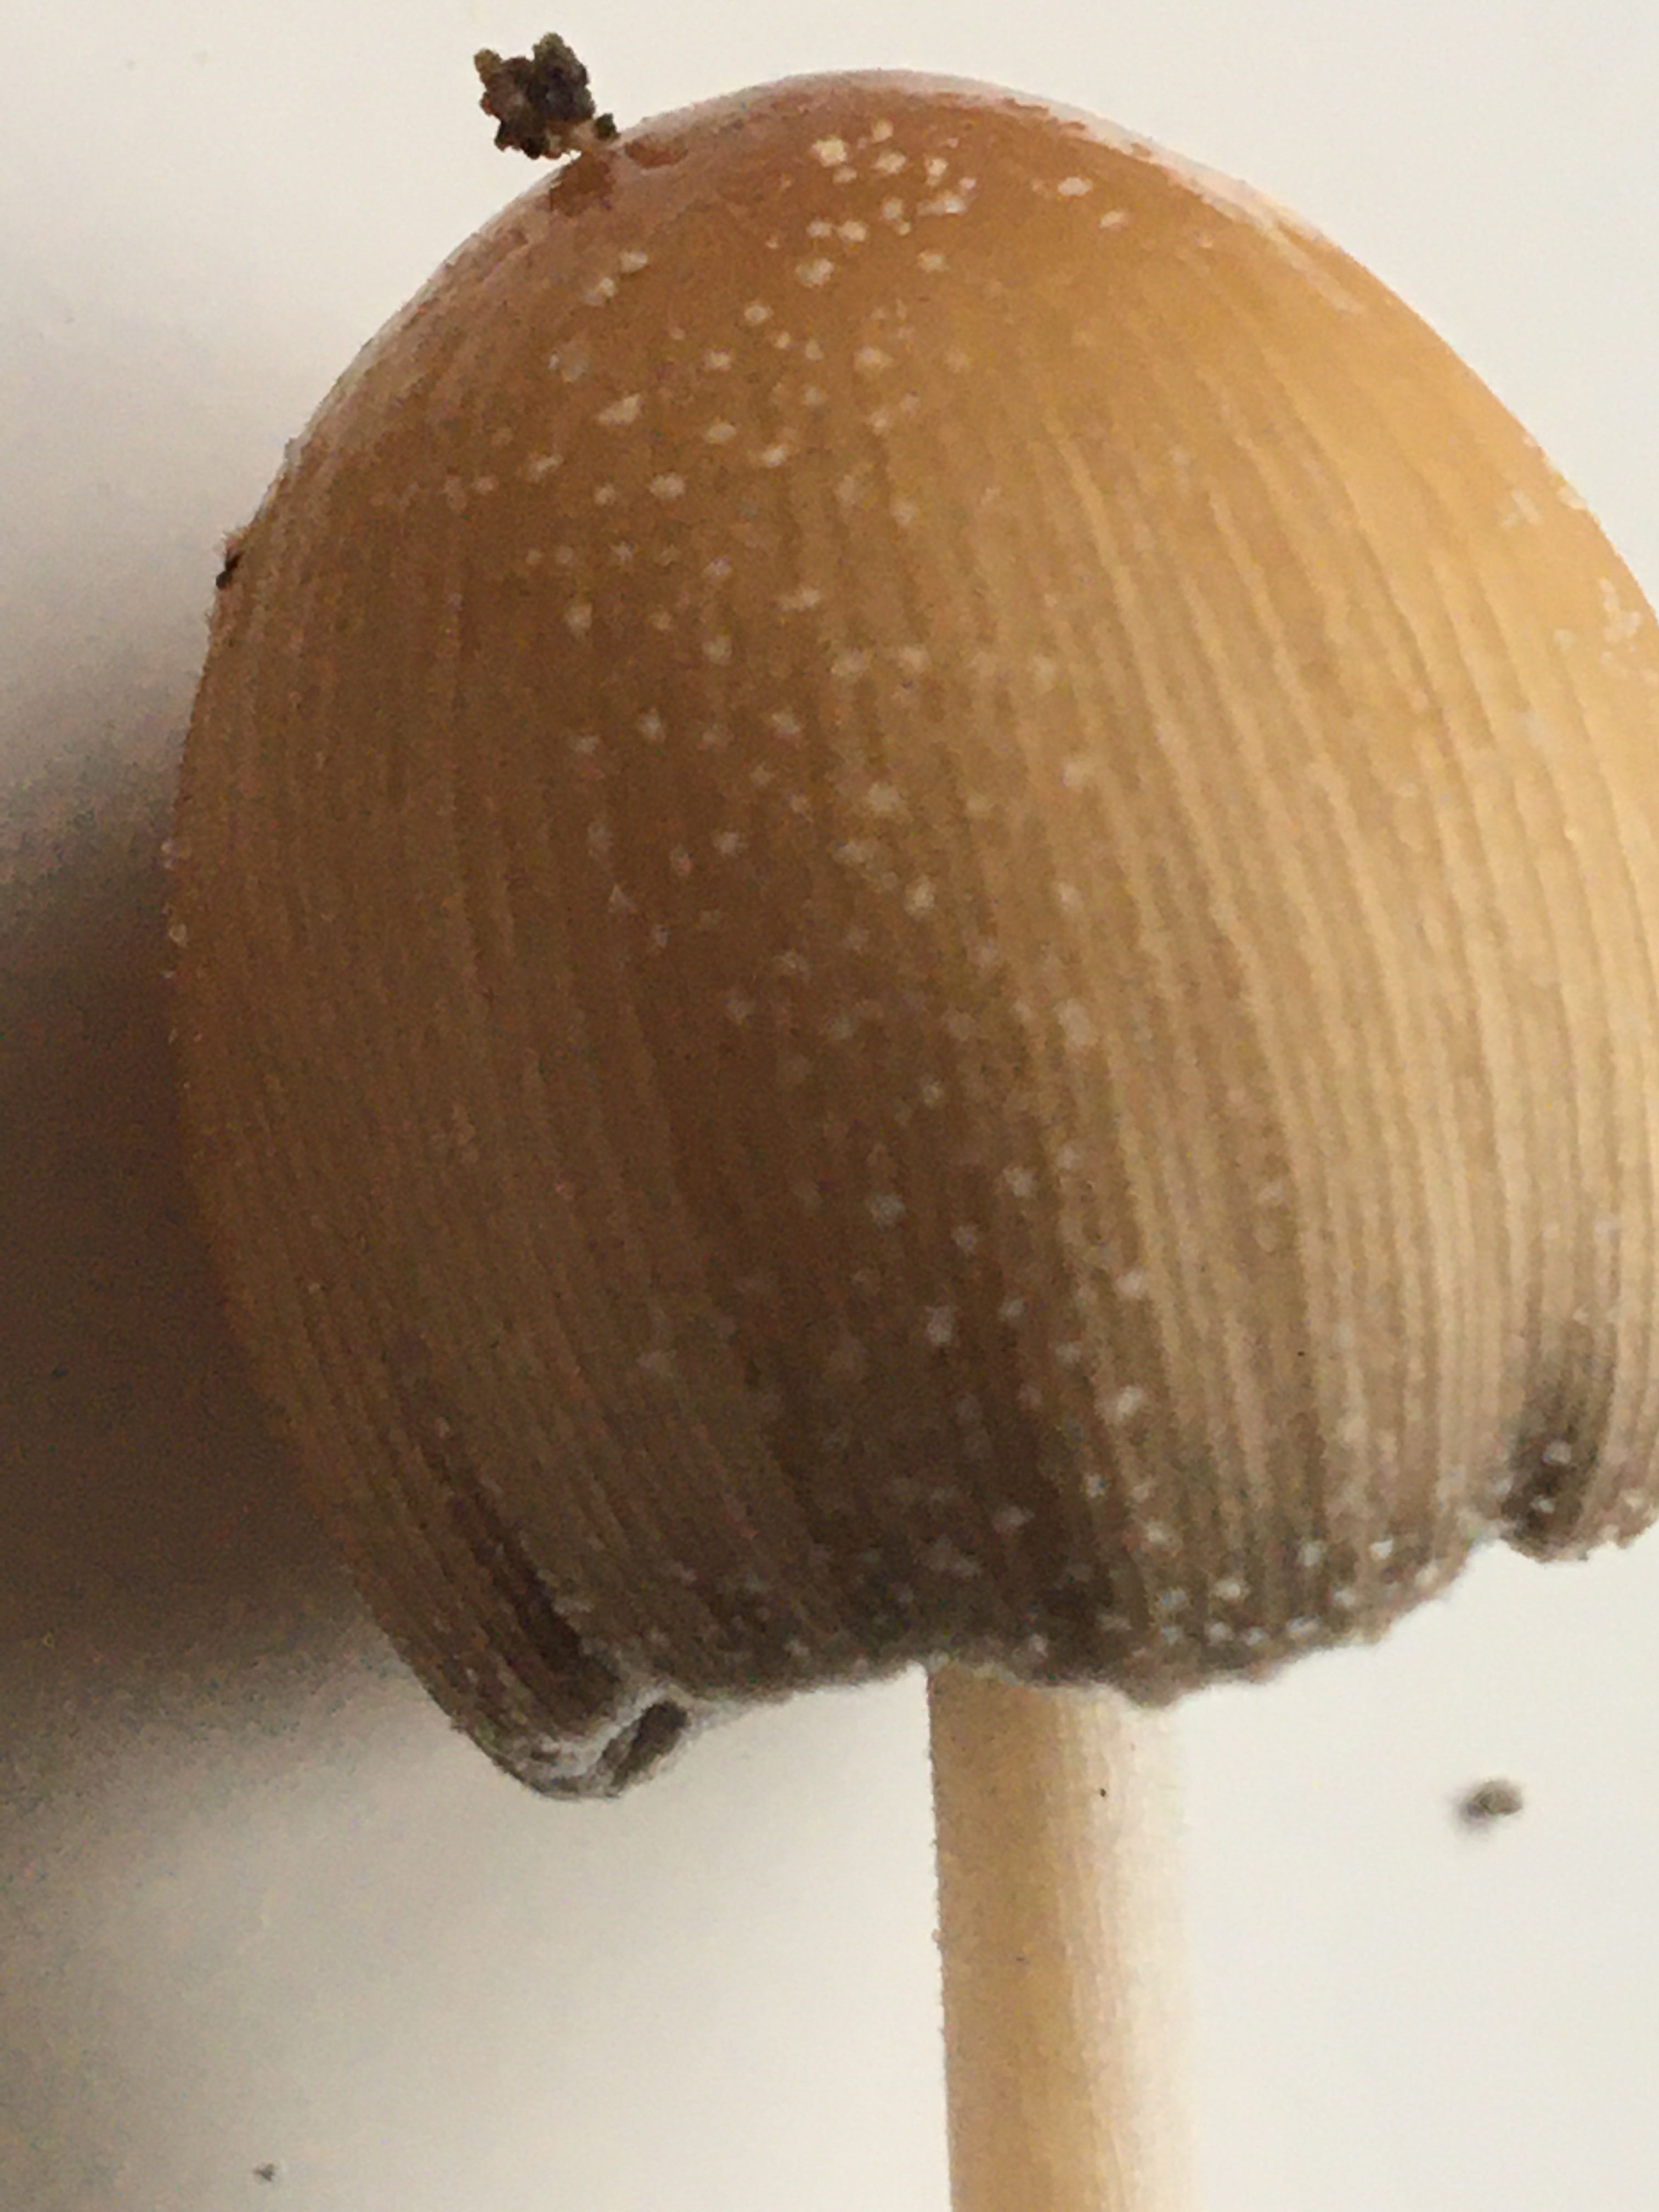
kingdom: Fungi
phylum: Basidiomycota
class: Agaricomycetes
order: Agaricales
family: Psathyrellaceae
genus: Coprinellus
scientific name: Coprinellus micaceus
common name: glimmer-blækhat
